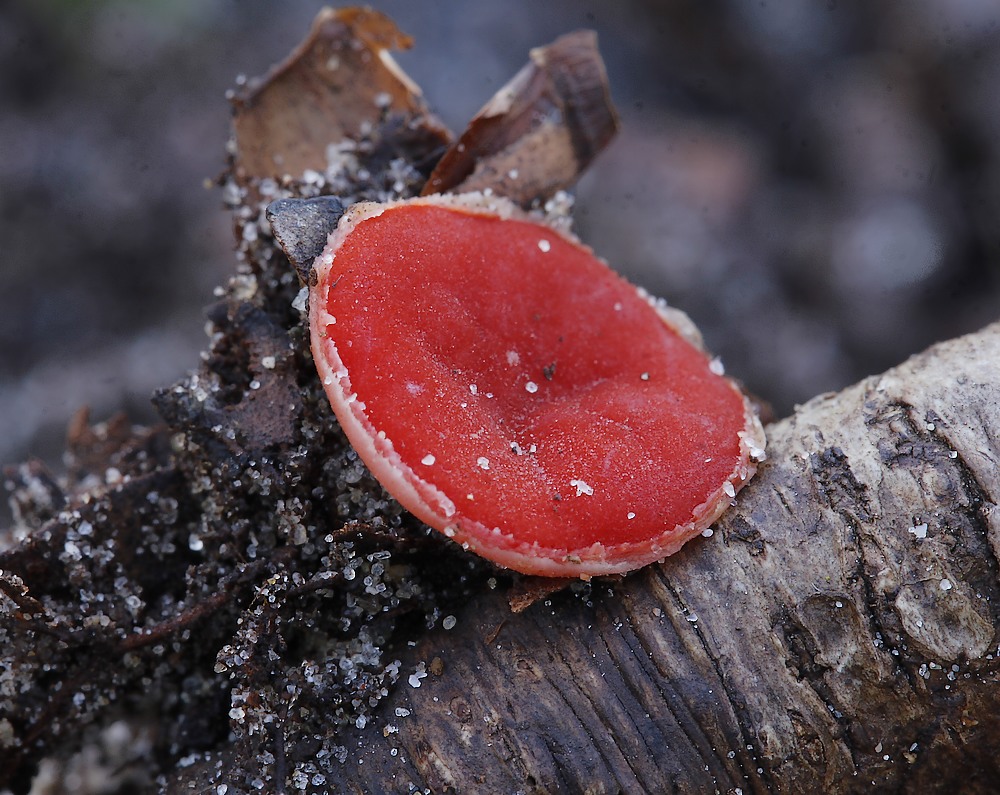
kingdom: Fungi
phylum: Ascomycota
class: Pezizomycetes
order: Pezizales
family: Sarcoscyphaceae
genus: Sarcoscypha
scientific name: Sarcoscypha coccinea
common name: skarlagen-pragtbæger
